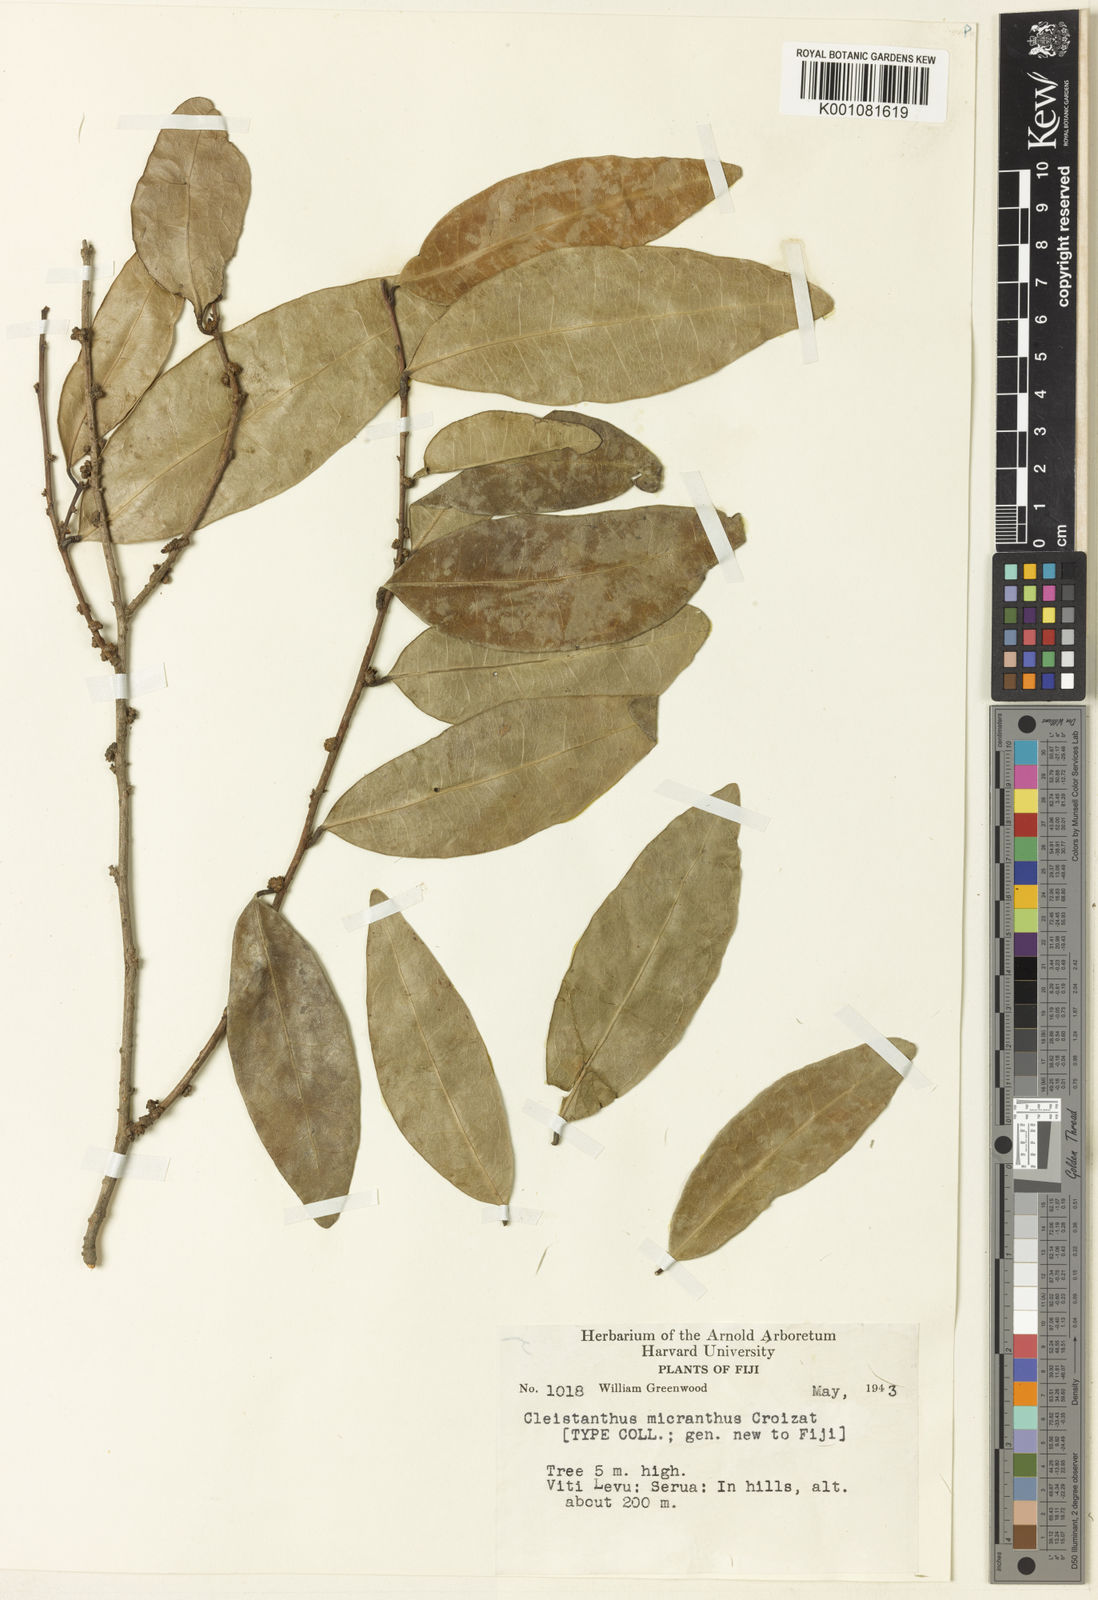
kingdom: Plantae
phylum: Tracheophyta
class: Magnoliopsida
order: Malpighiales
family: Phyllanthaceae
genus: Cleistanthus
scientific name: Cleistanthus micranthus
